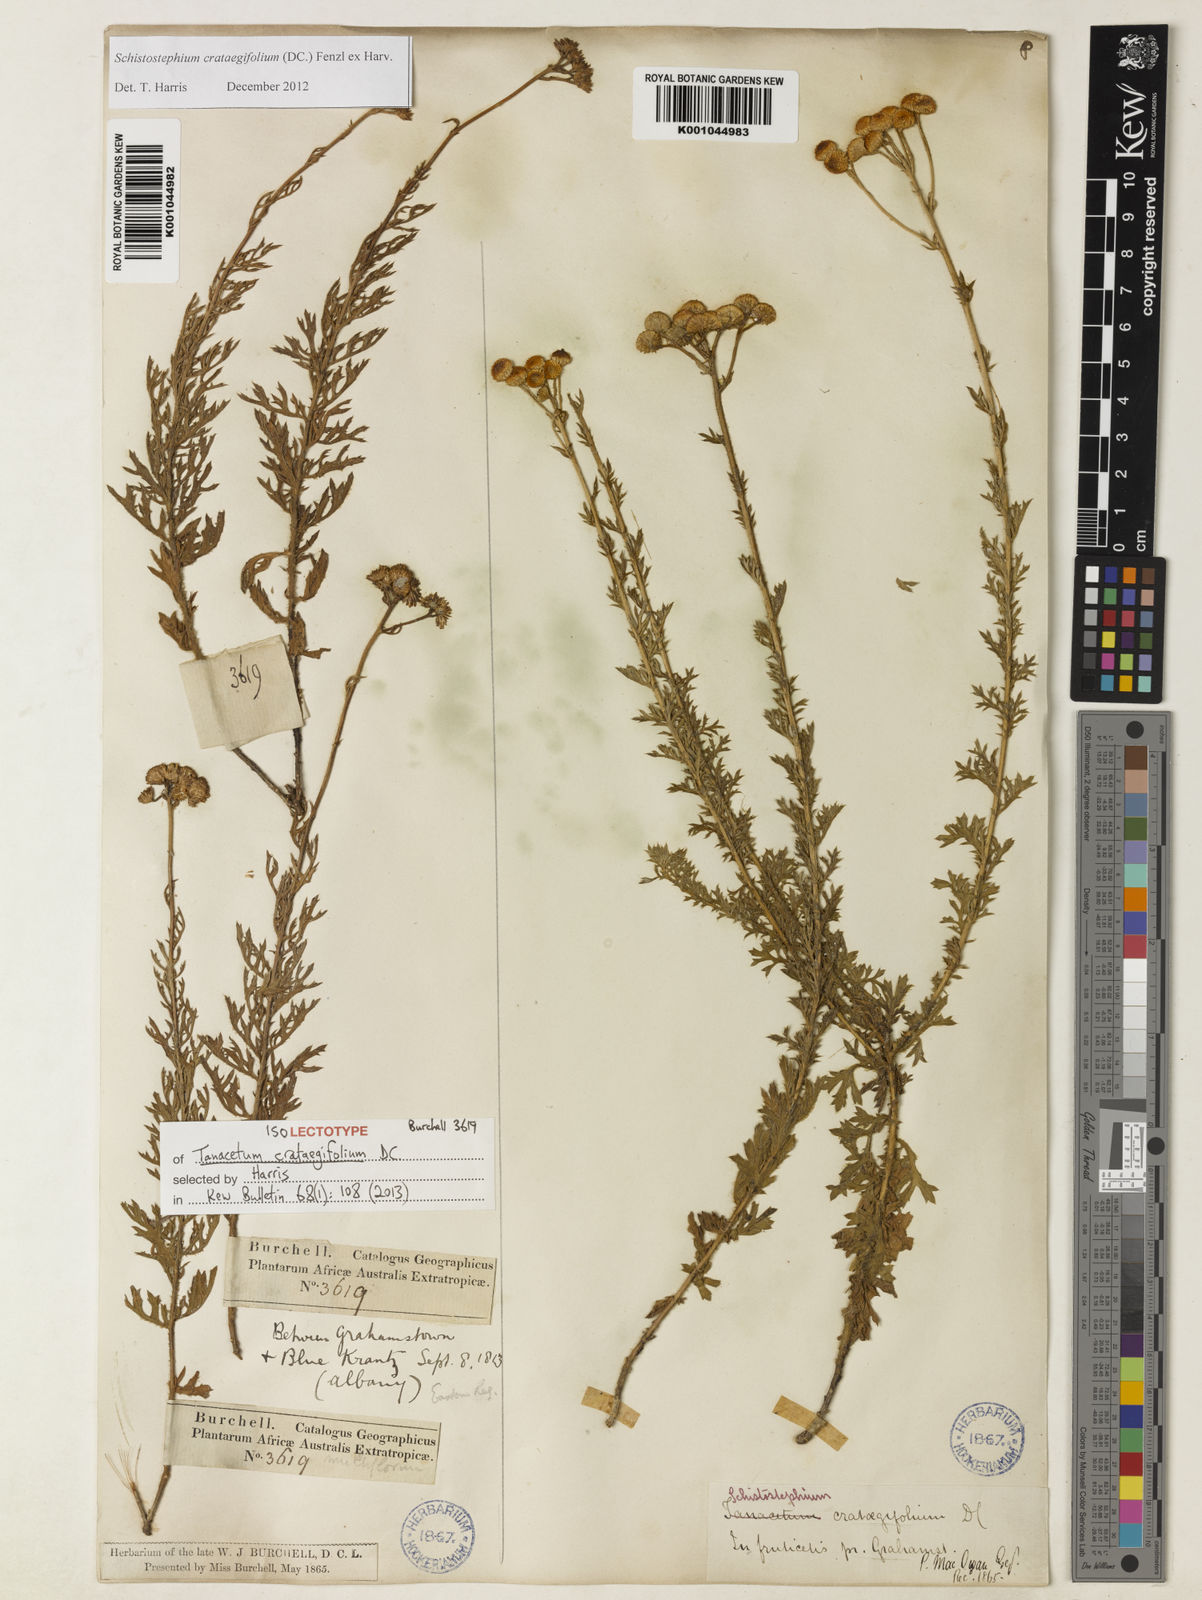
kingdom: Plantae
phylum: Tracheophyta
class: Magnoliopsida
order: Asterales
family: Asteraceae
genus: Schistostephium
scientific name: Schistostephium crataegifolium
